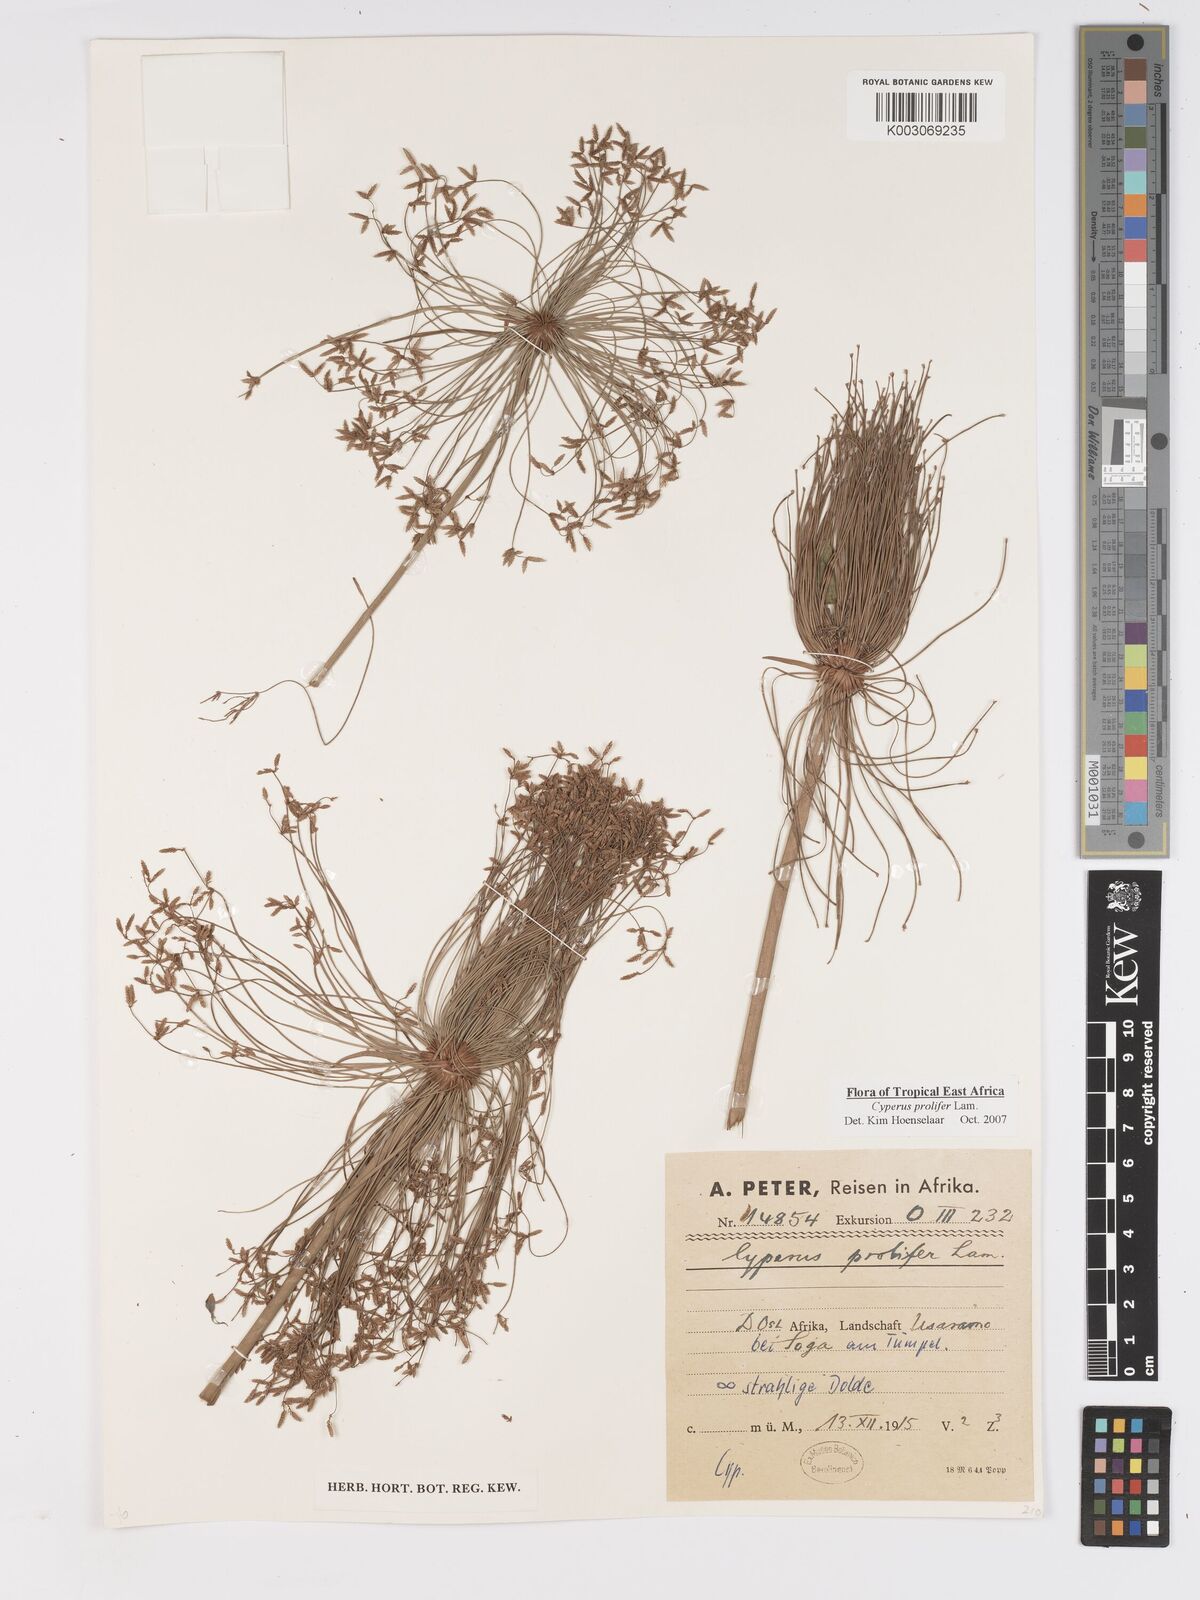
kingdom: Plantae
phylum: Tracheophyta
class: Liliopsida
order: Poales
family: Cyperaceae
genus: Cyperus
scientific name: Cyperus prolifer
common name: Miniature flatsedge
